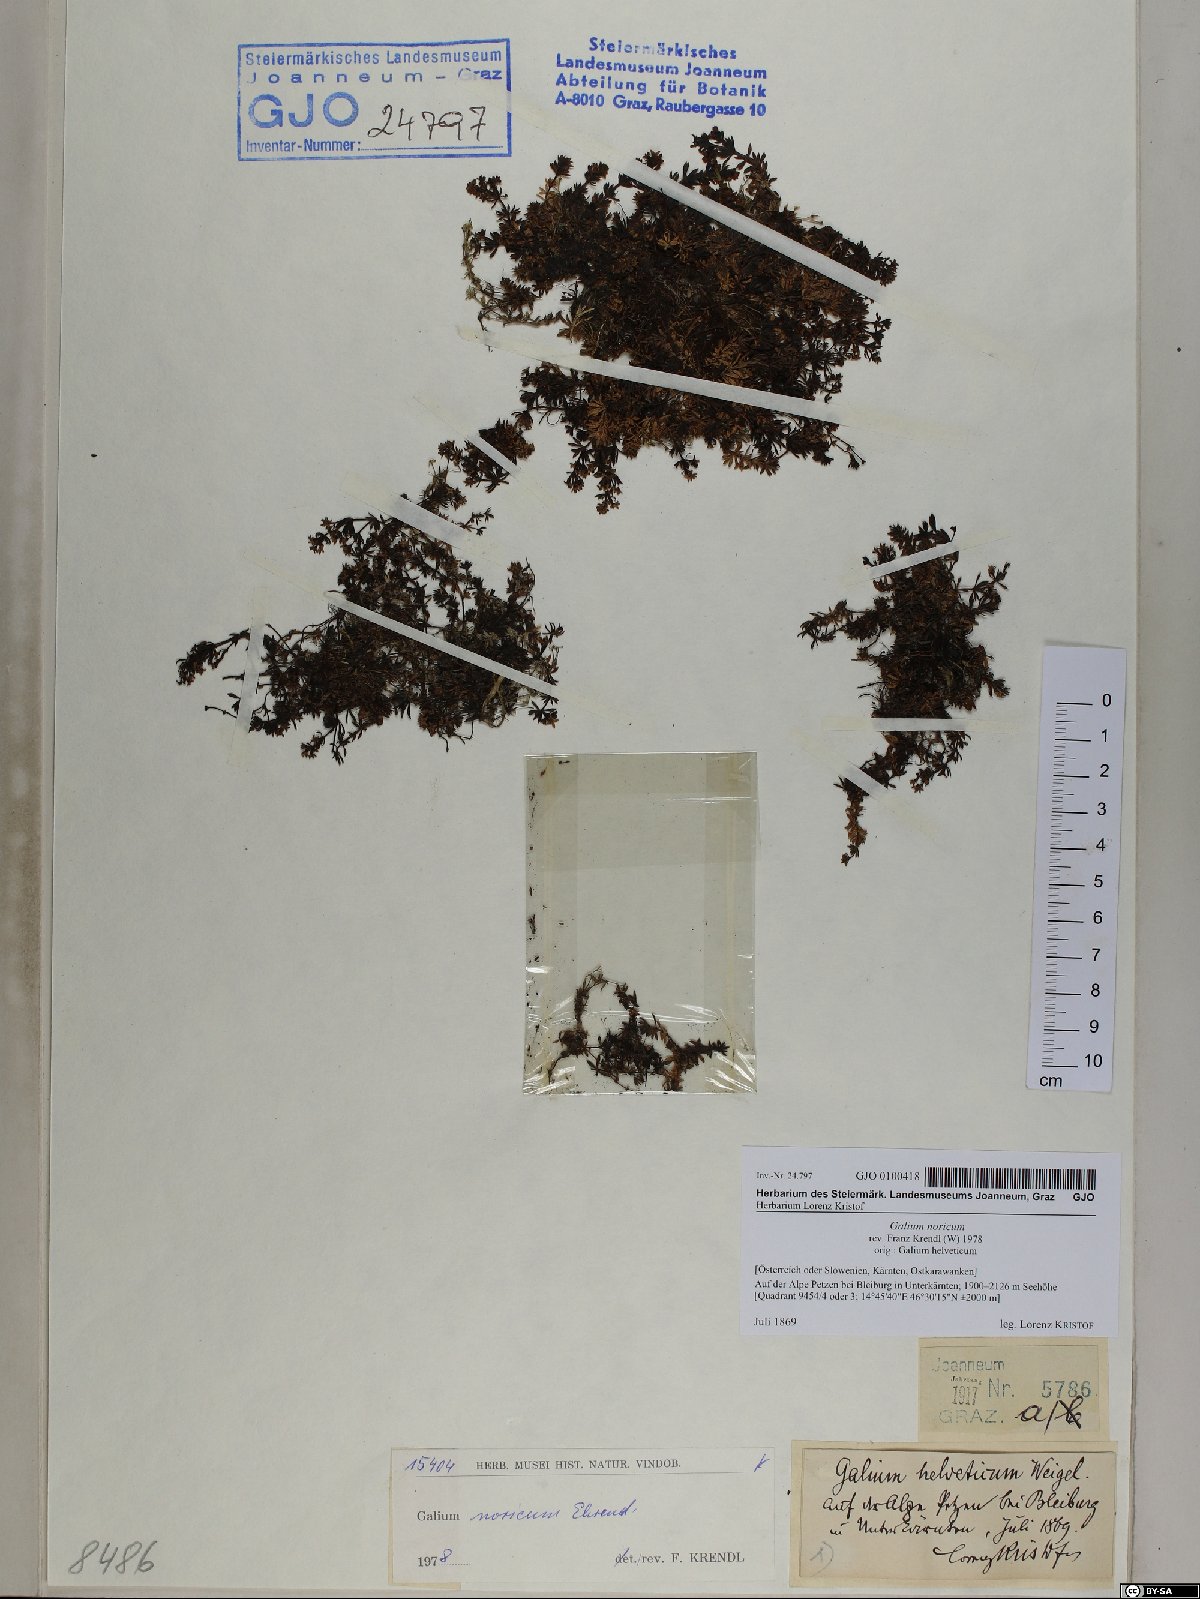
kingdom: Plantae
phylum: Tracheophyta
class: Magnoliopsida
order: Gentianales
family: Rubiaceae
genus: Galium
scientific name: Galium noricum
